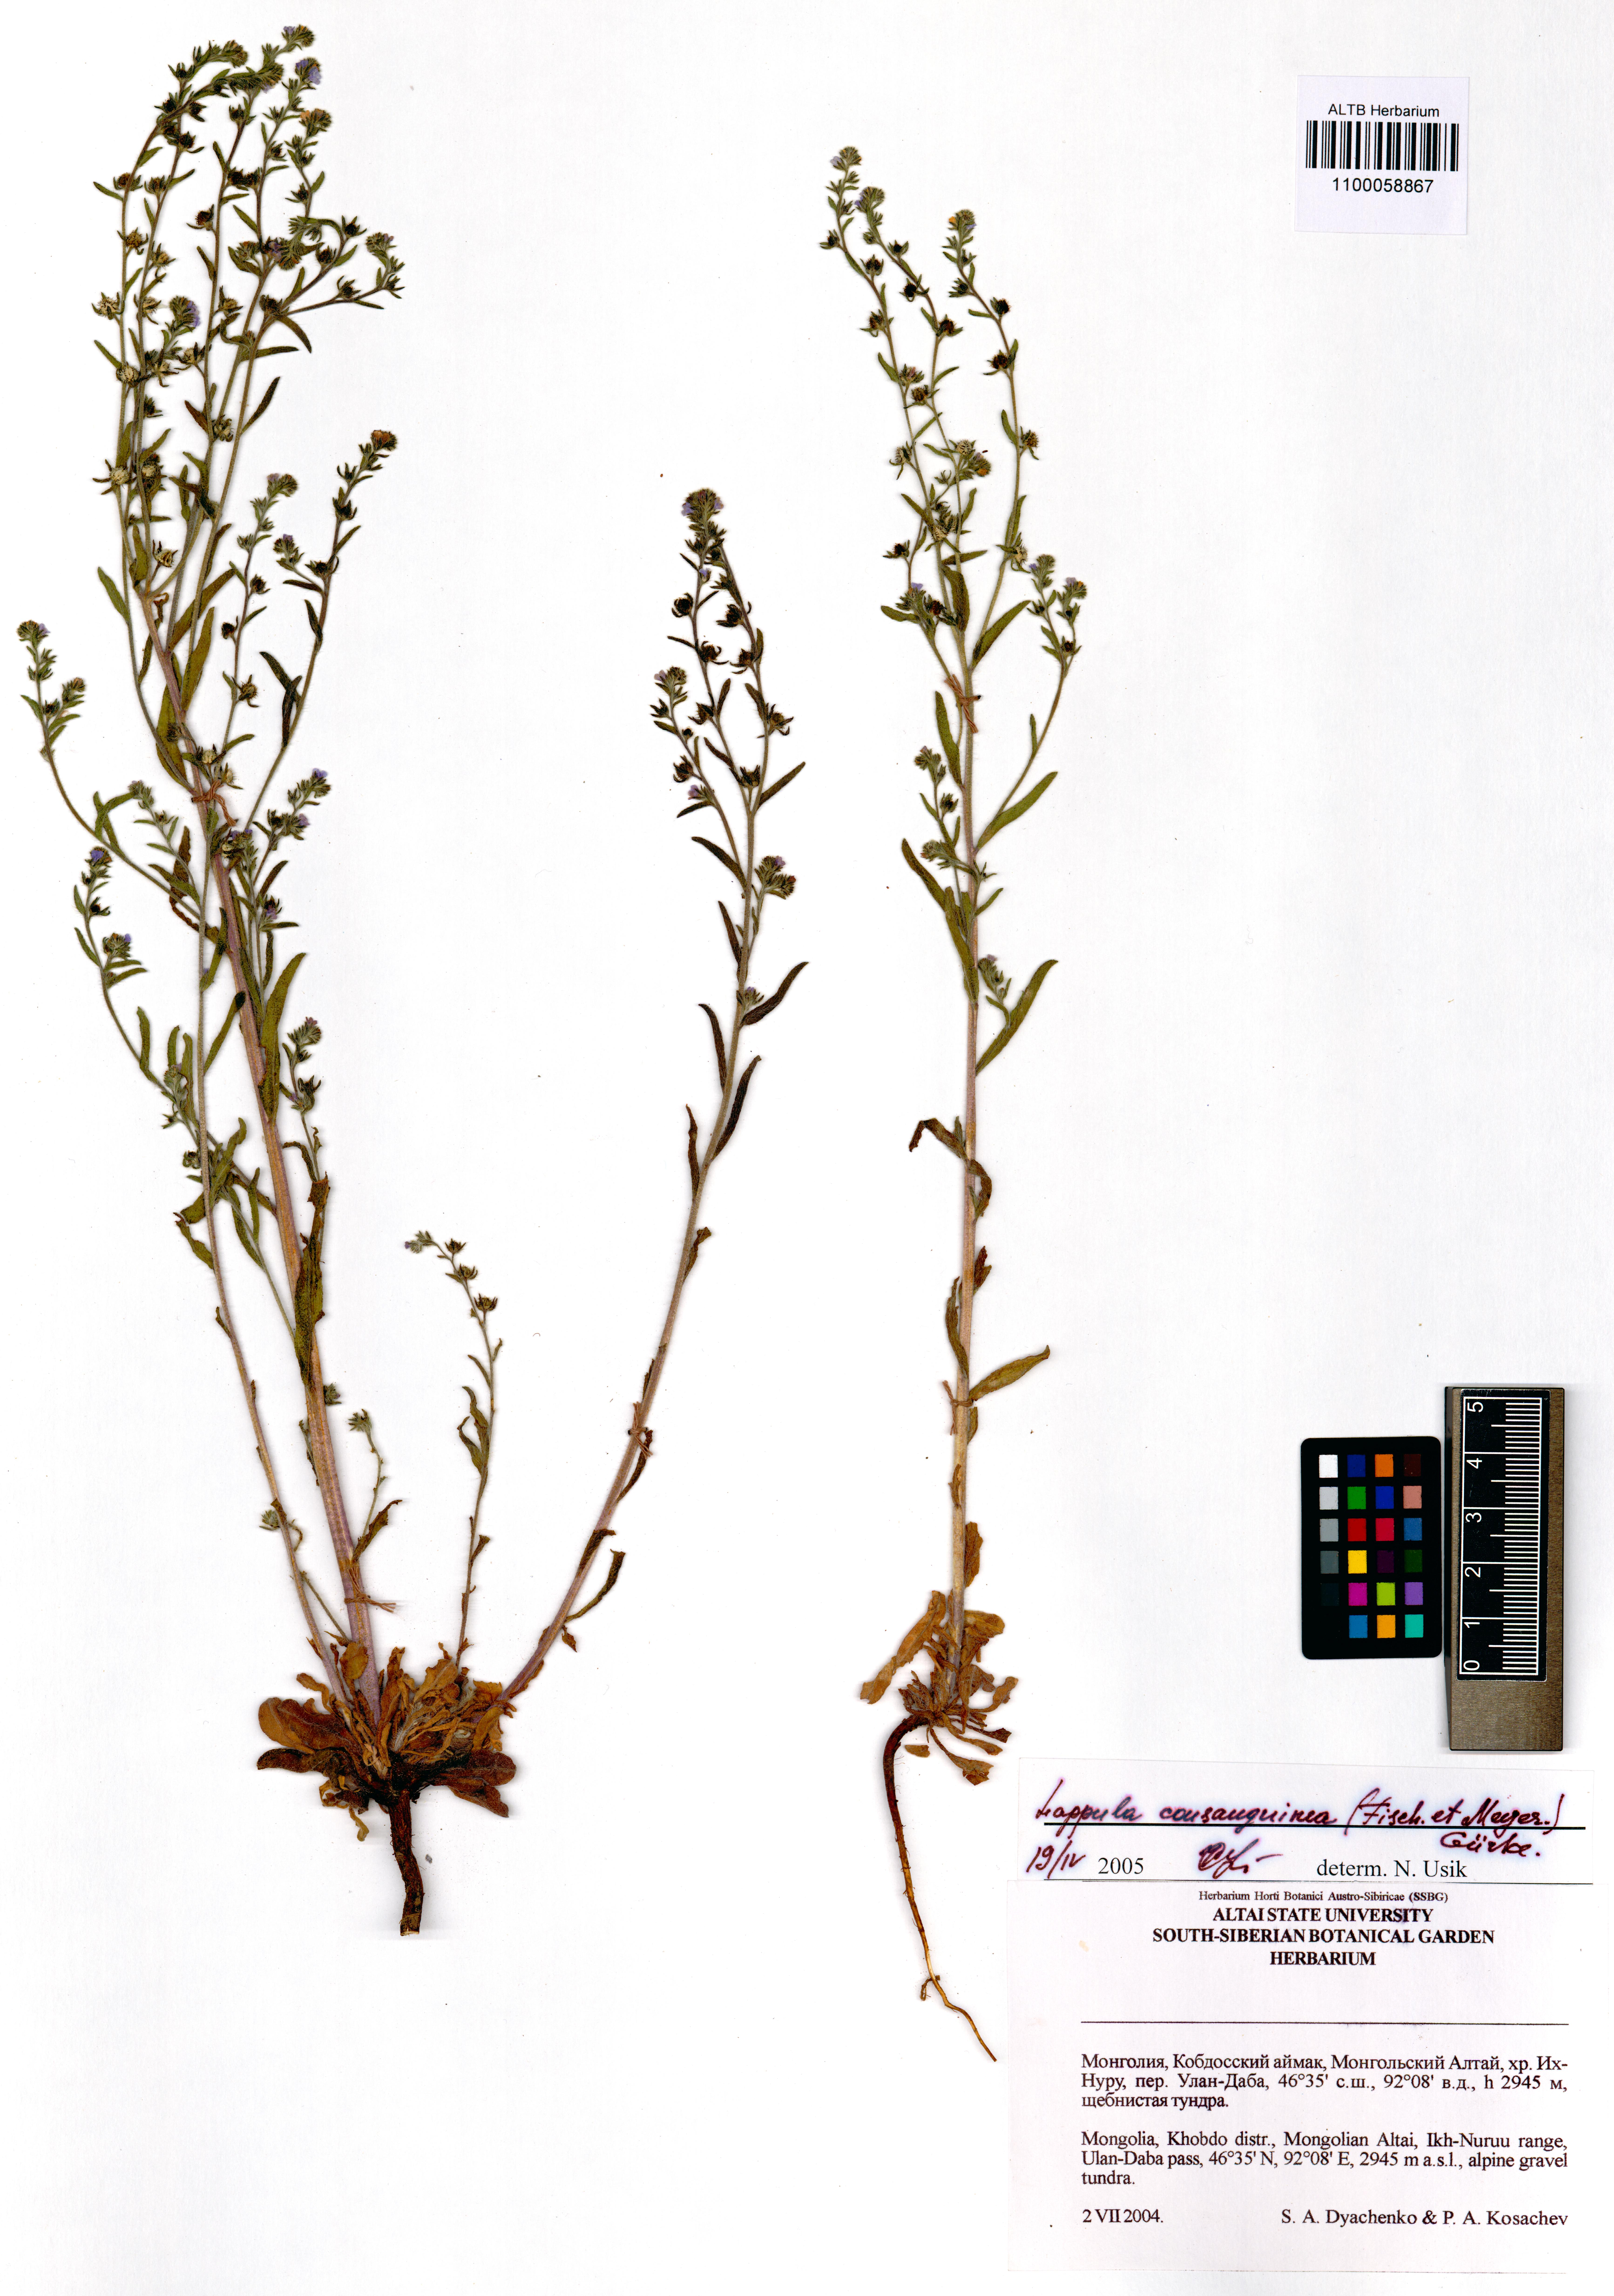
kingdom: Plantae
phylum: Tracheophyta
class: Magnoliopsida
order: Boraginales
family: Boraginaceae
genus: Lappula
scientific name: Lappula squarrosa
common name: European stickseed
